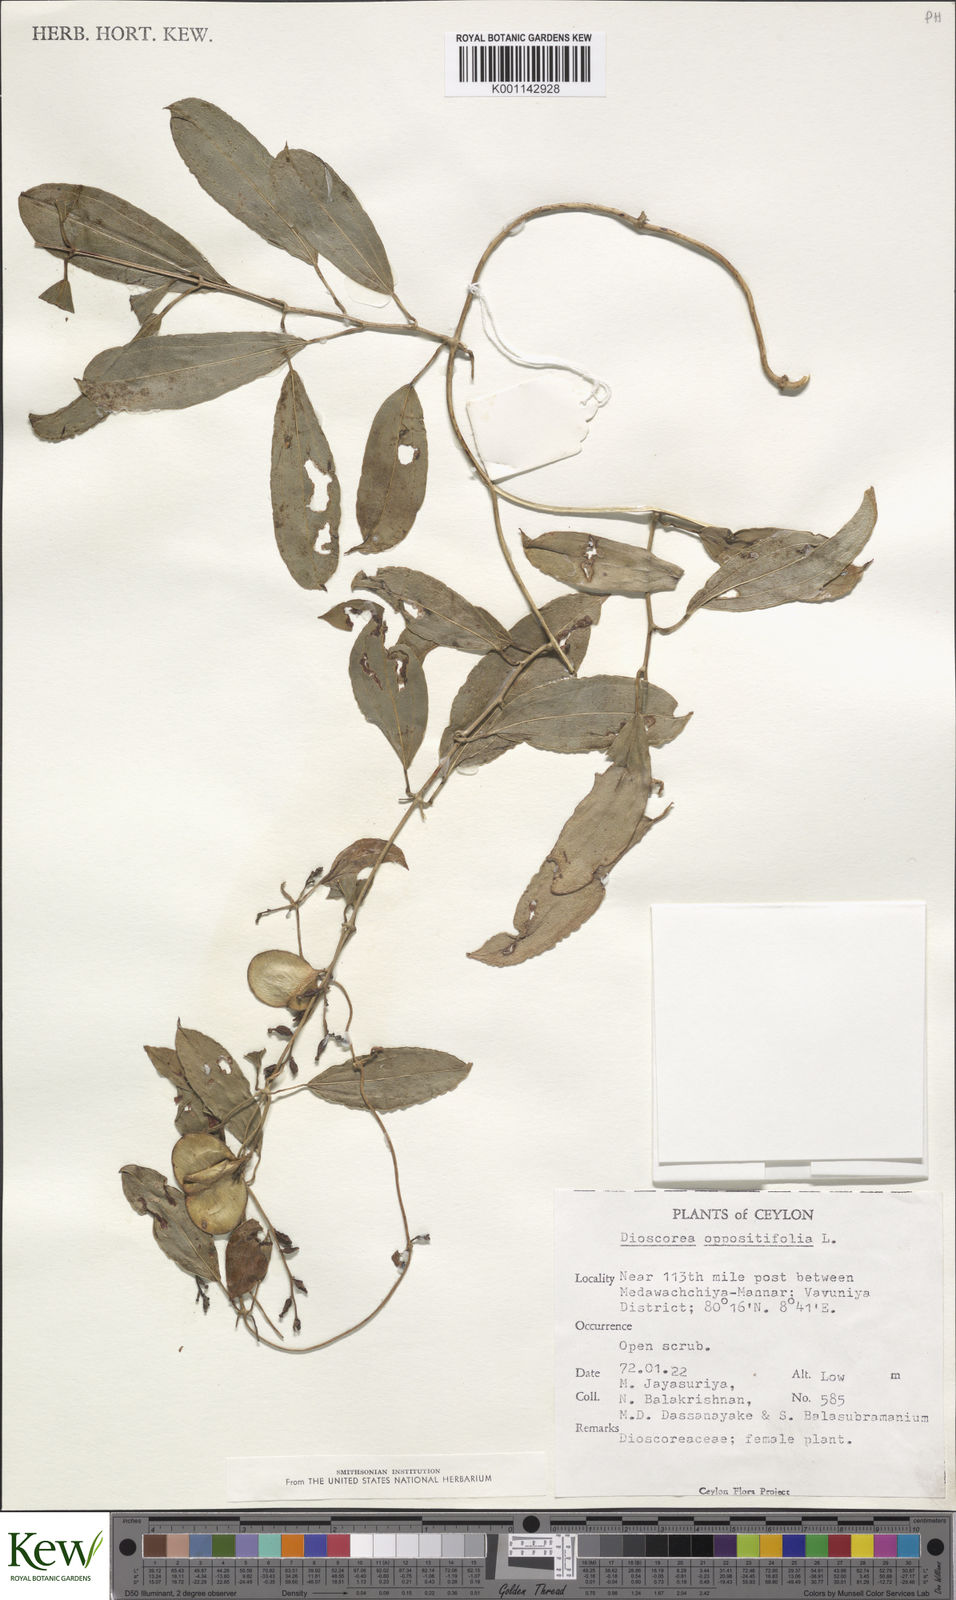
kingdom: Plantae
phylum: Tracheophyta
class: Liliopsida
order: Dioscoreales
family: Dioscoreaceae
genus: Dioscorea
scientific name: Dioscorea oppositifolia
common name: Chinese yam
